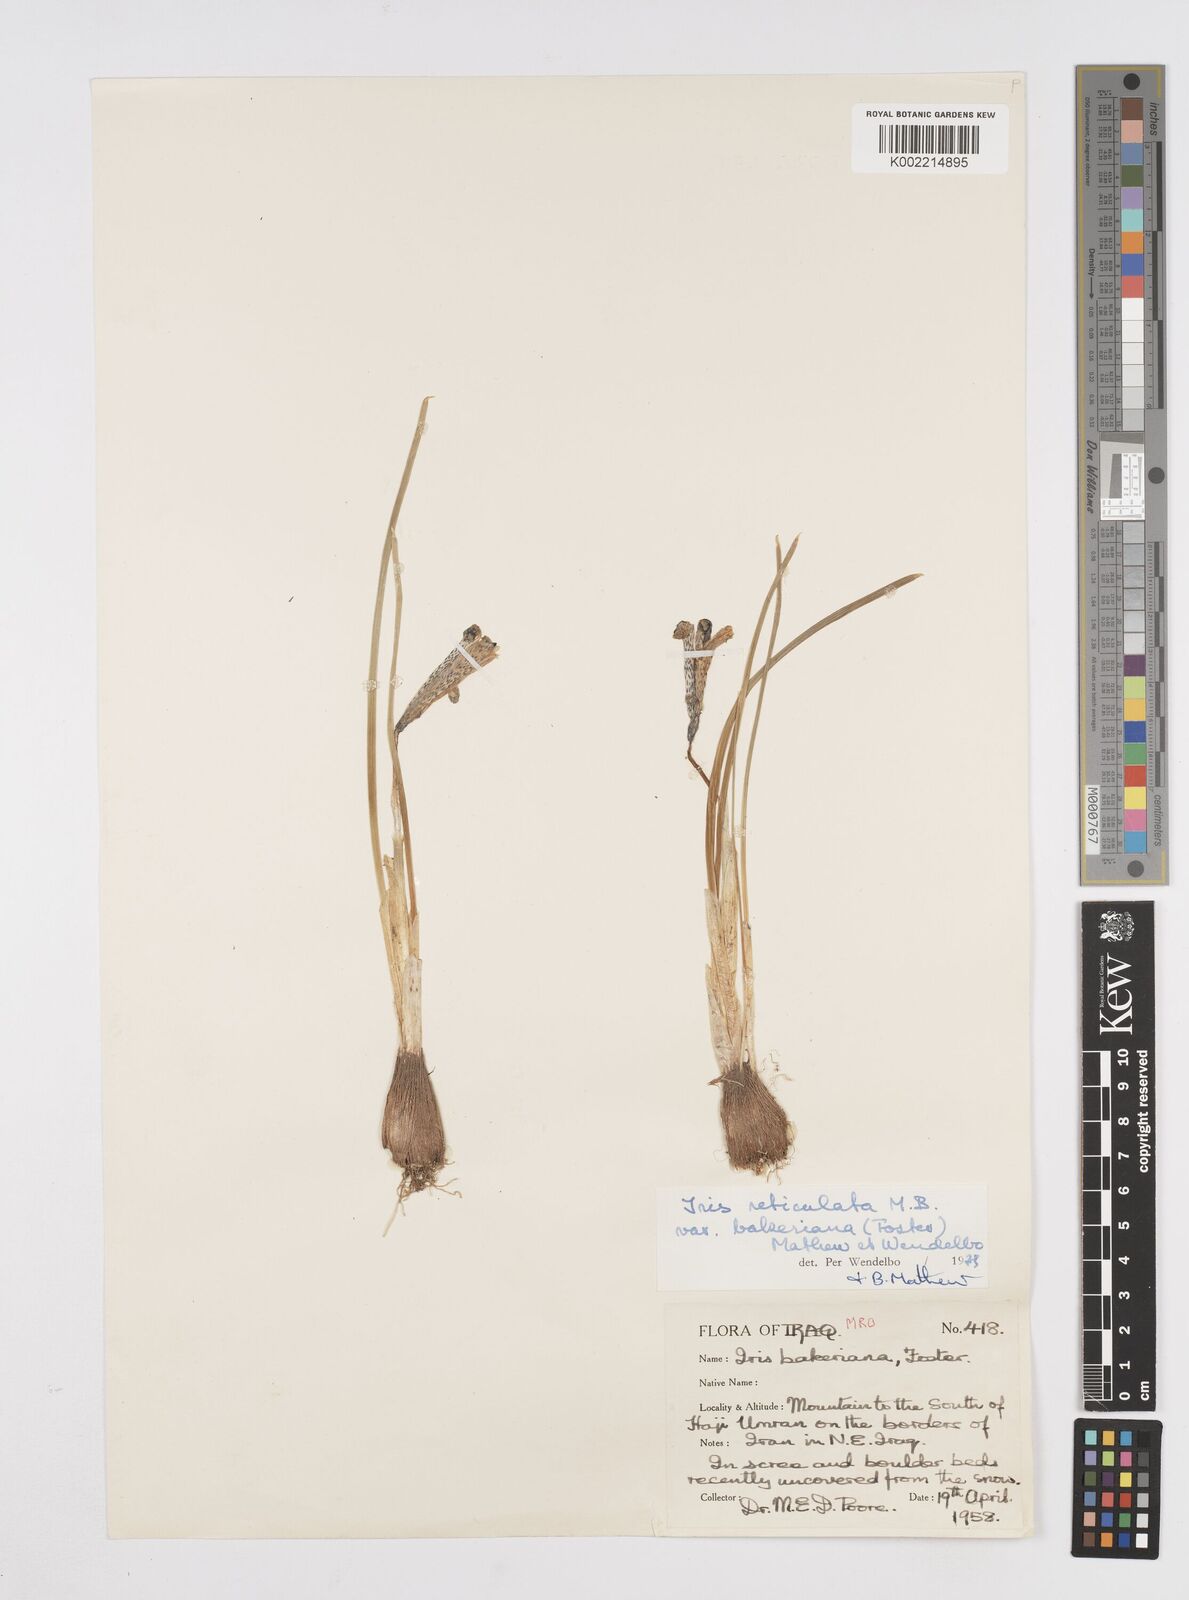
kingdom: Plantae
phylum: Tracheophyta
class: Liliopsida
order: Asparagales
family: Iridaceae
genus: Iris
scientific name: Iris reticulata
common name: Netted iris
